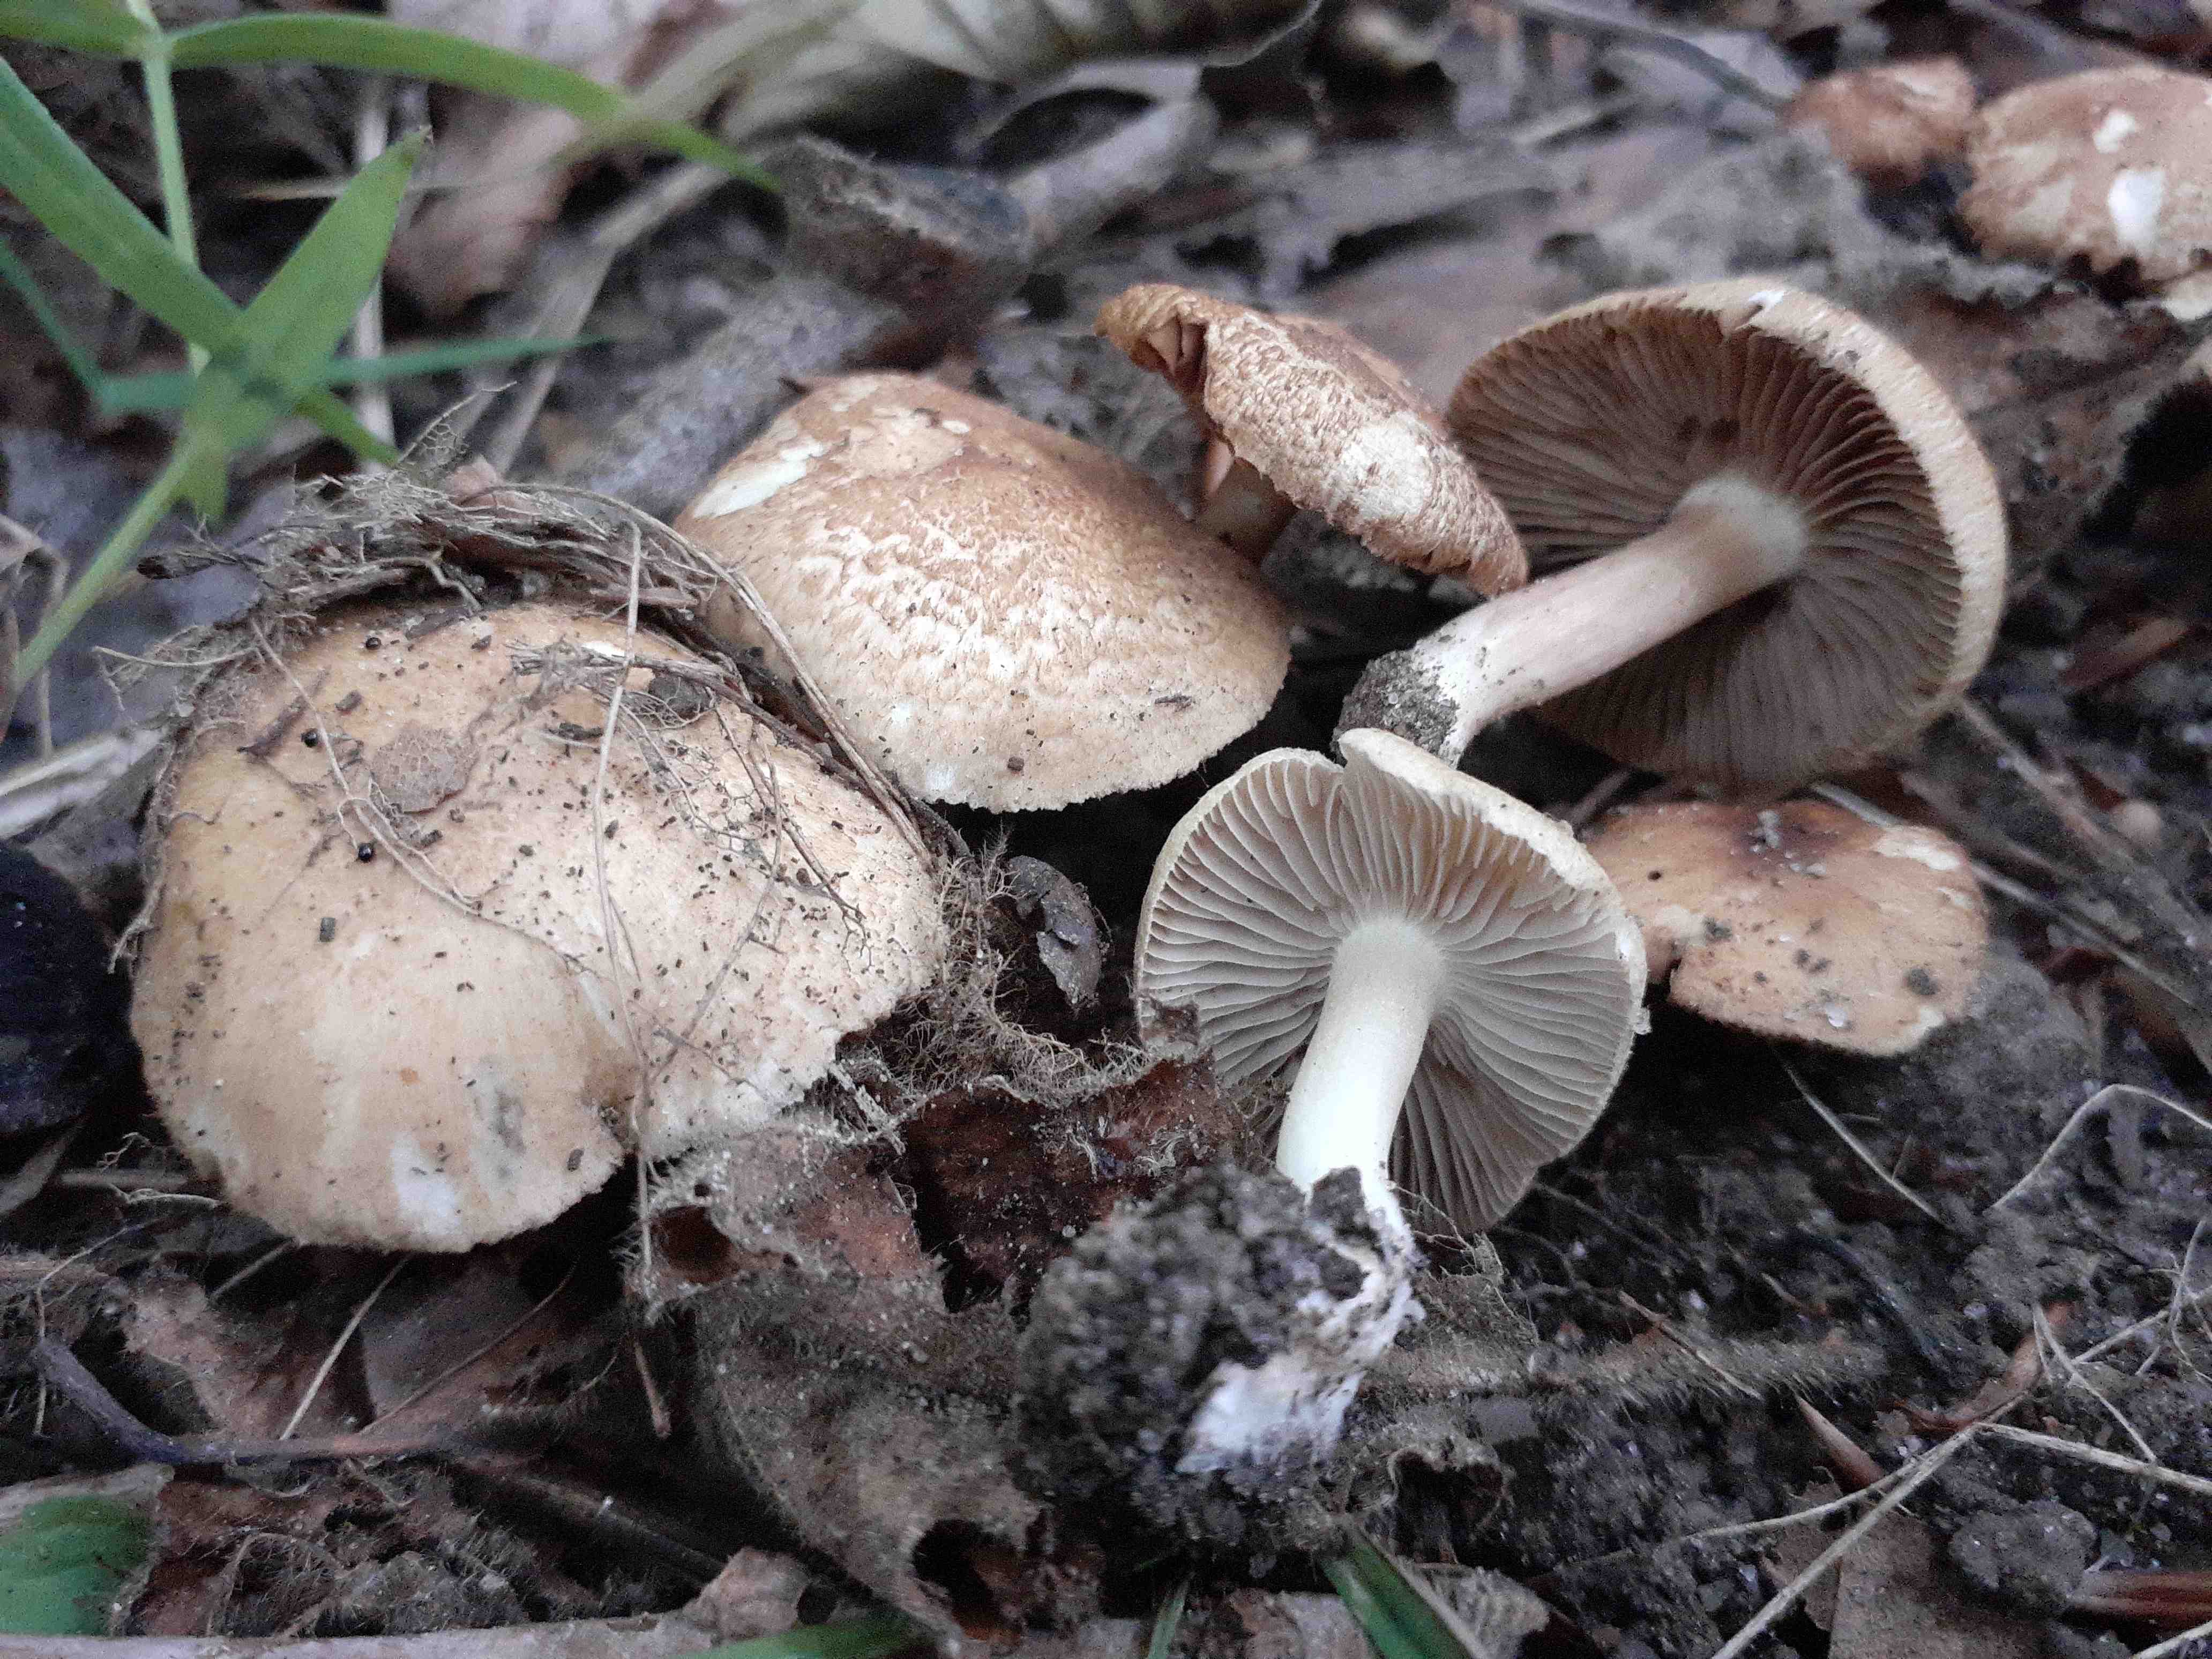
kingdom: Fungi
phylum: Basidiomycota
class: Agaricomycetes
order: Agaricales
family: Inocybaceae
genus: Inocybe
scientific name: Inocybe
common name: trævlhat
